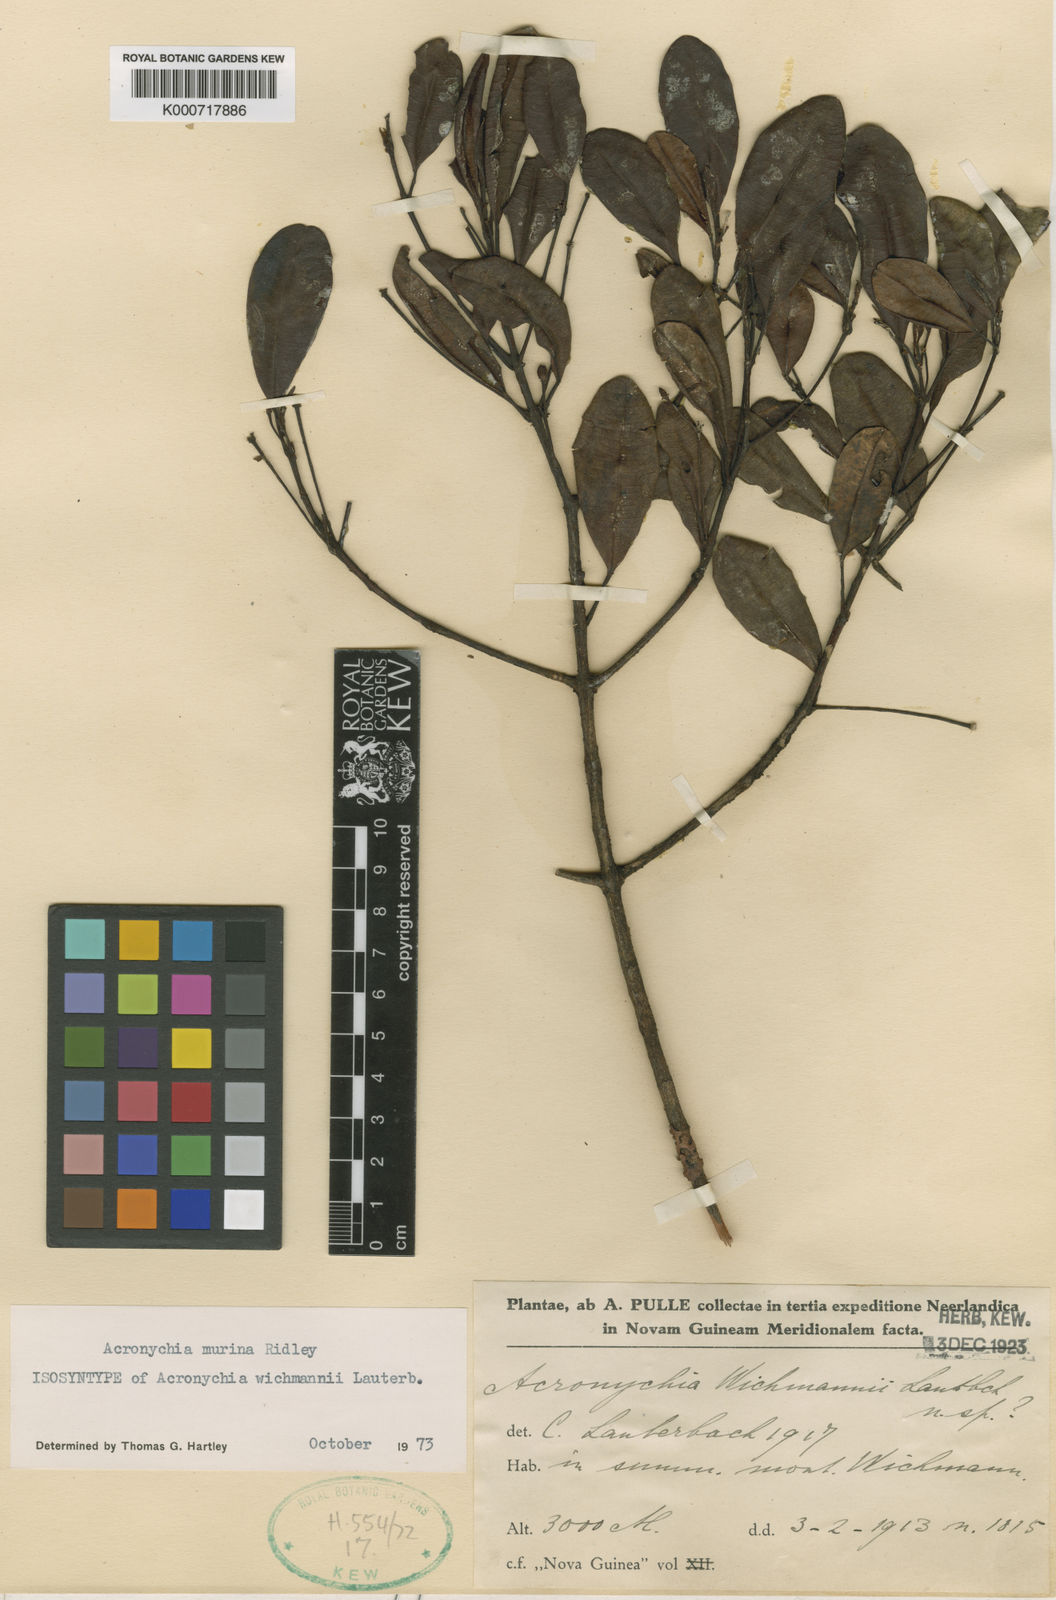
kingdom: Plantae
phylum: Tracheophyta
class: Magnoliopsida
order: Sapindales
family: Rutaceae
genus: Acronychia
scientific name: Acronychia murina
